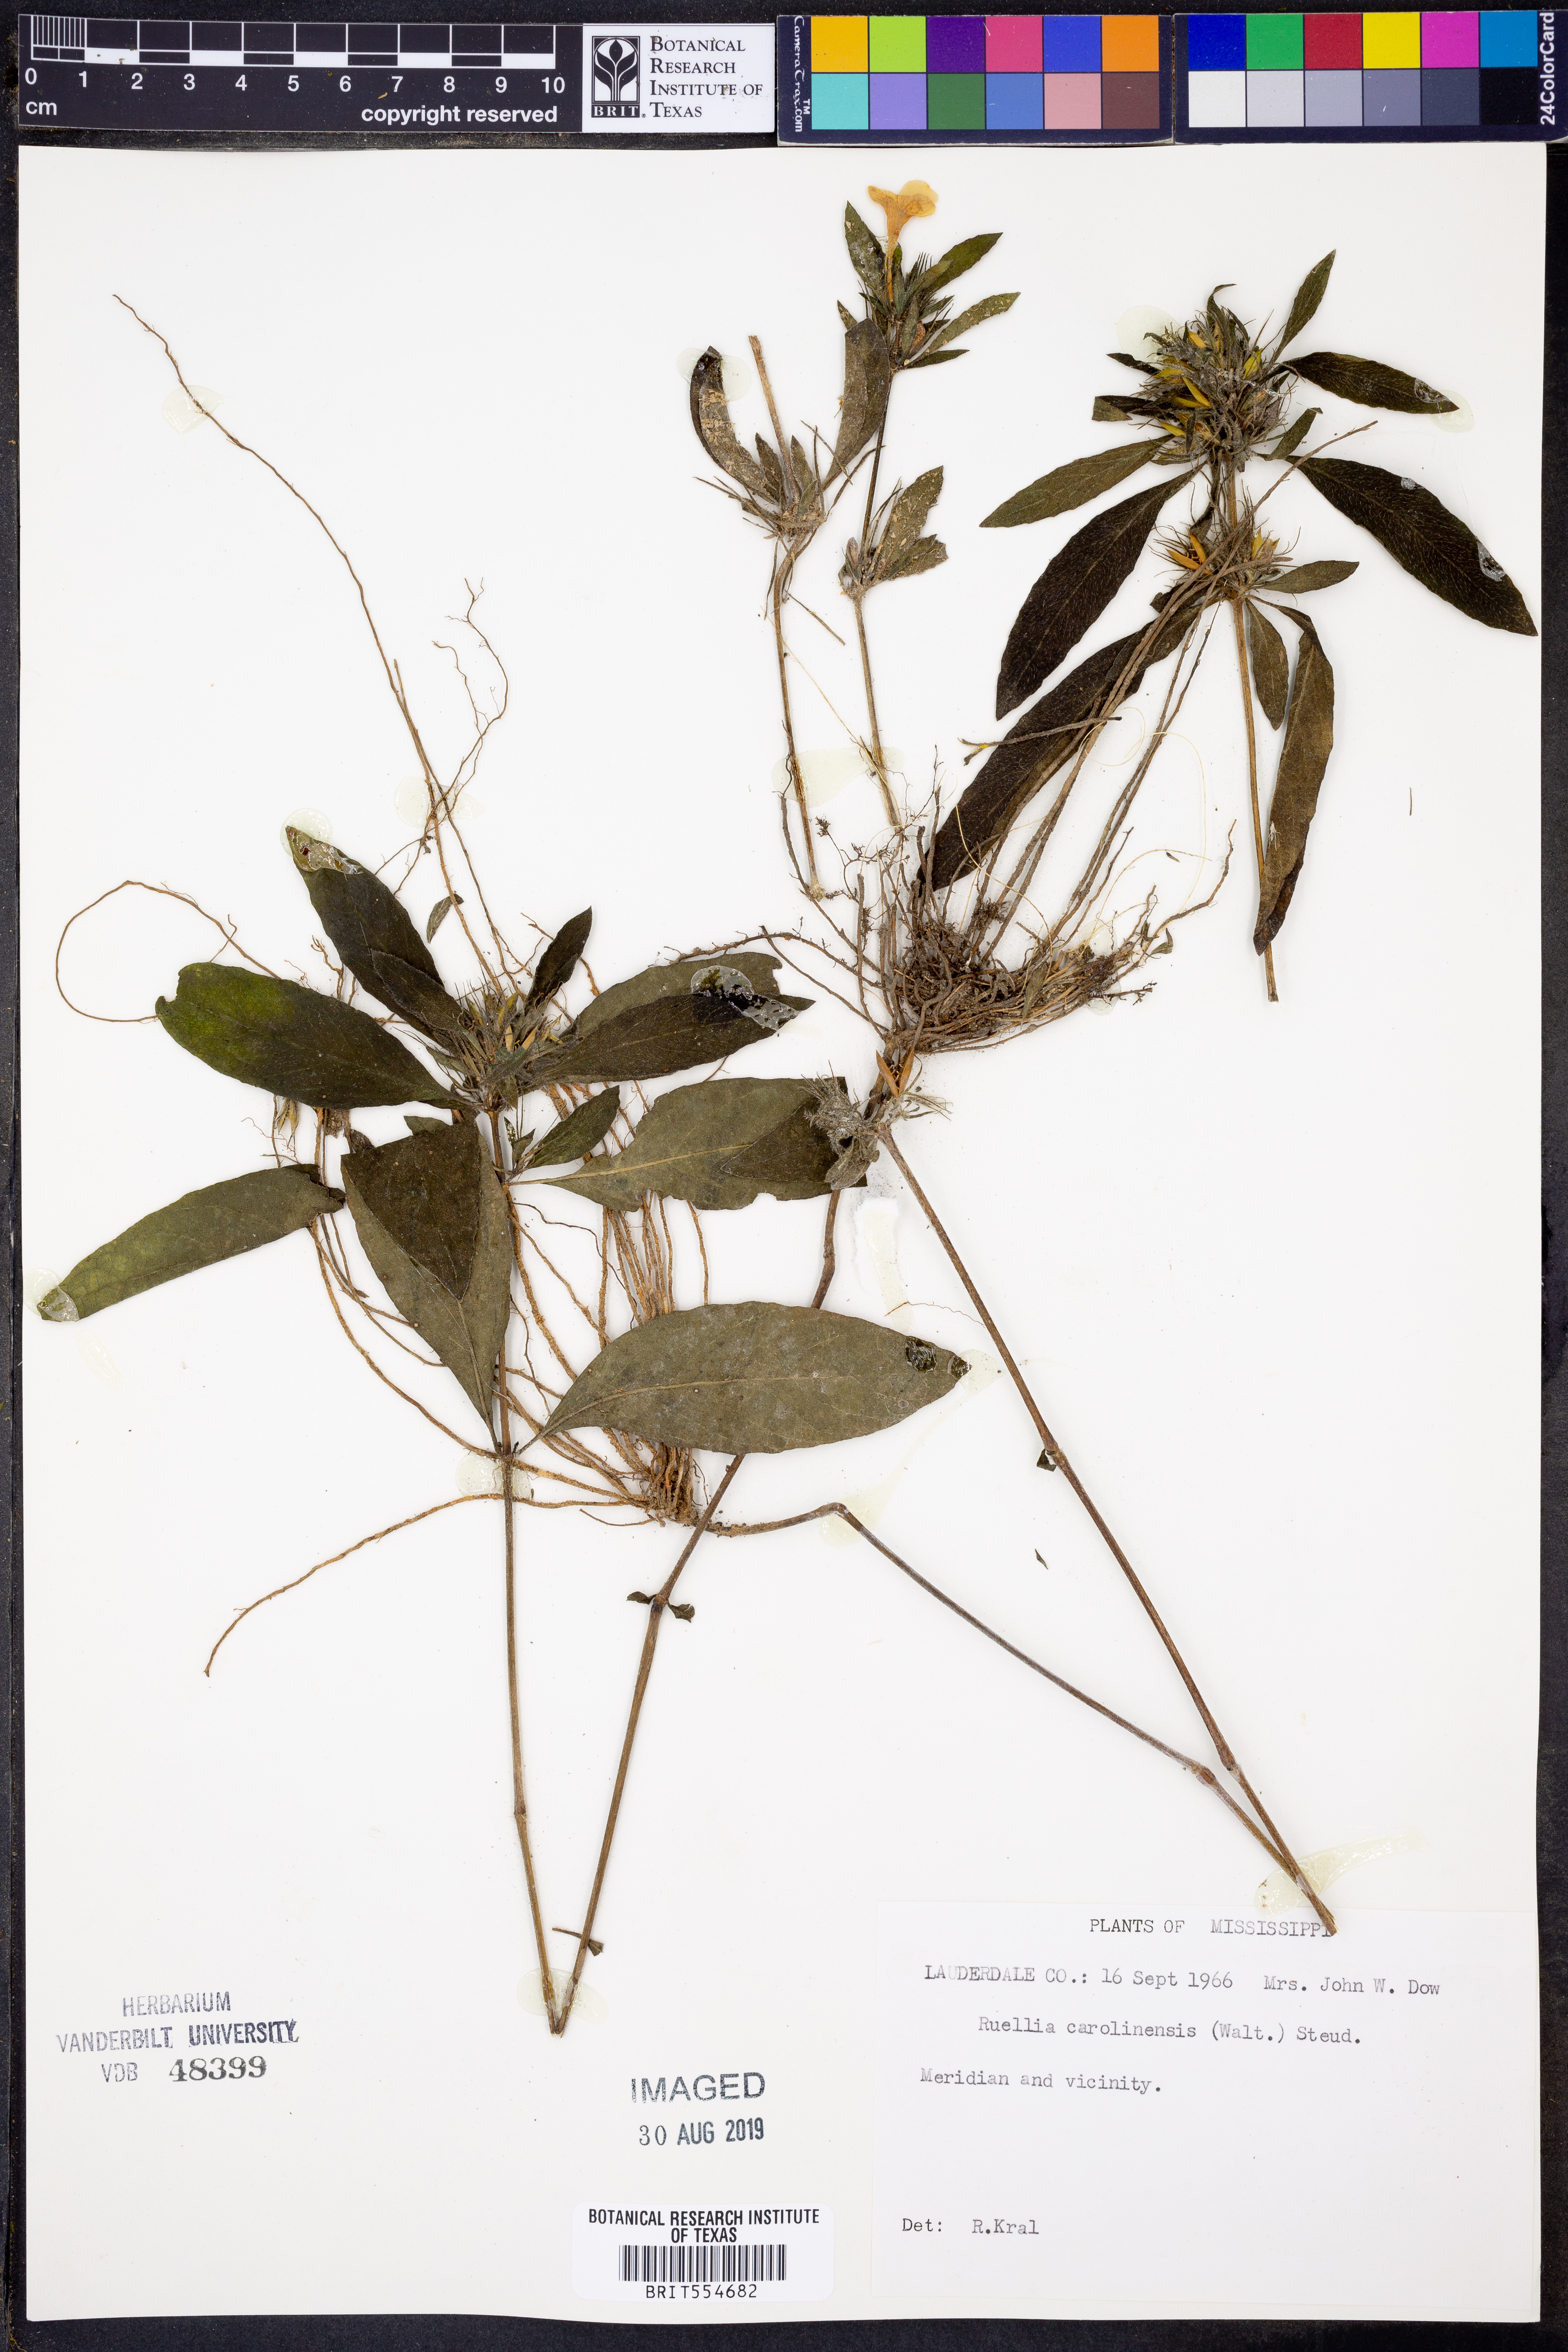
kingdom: Plantae
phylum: Tracheophyta
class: Magnoliopsida
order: Lamiales
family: Acanthaceae
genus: Ruellia
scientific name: Ruellia caroliniensis
